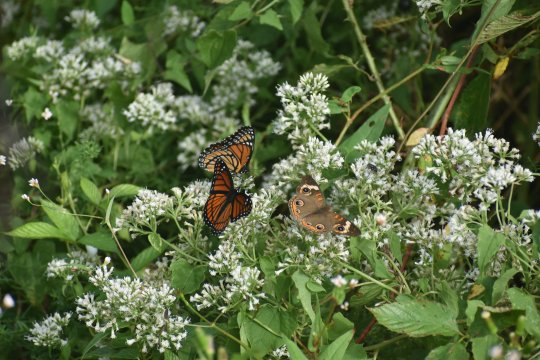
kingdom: Animalia
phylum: Arthropoda
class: Insecta
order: Lepidoptera
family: Nymphalidae
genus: Limenitis
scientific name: Limenitis archippus
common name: Viceroy
